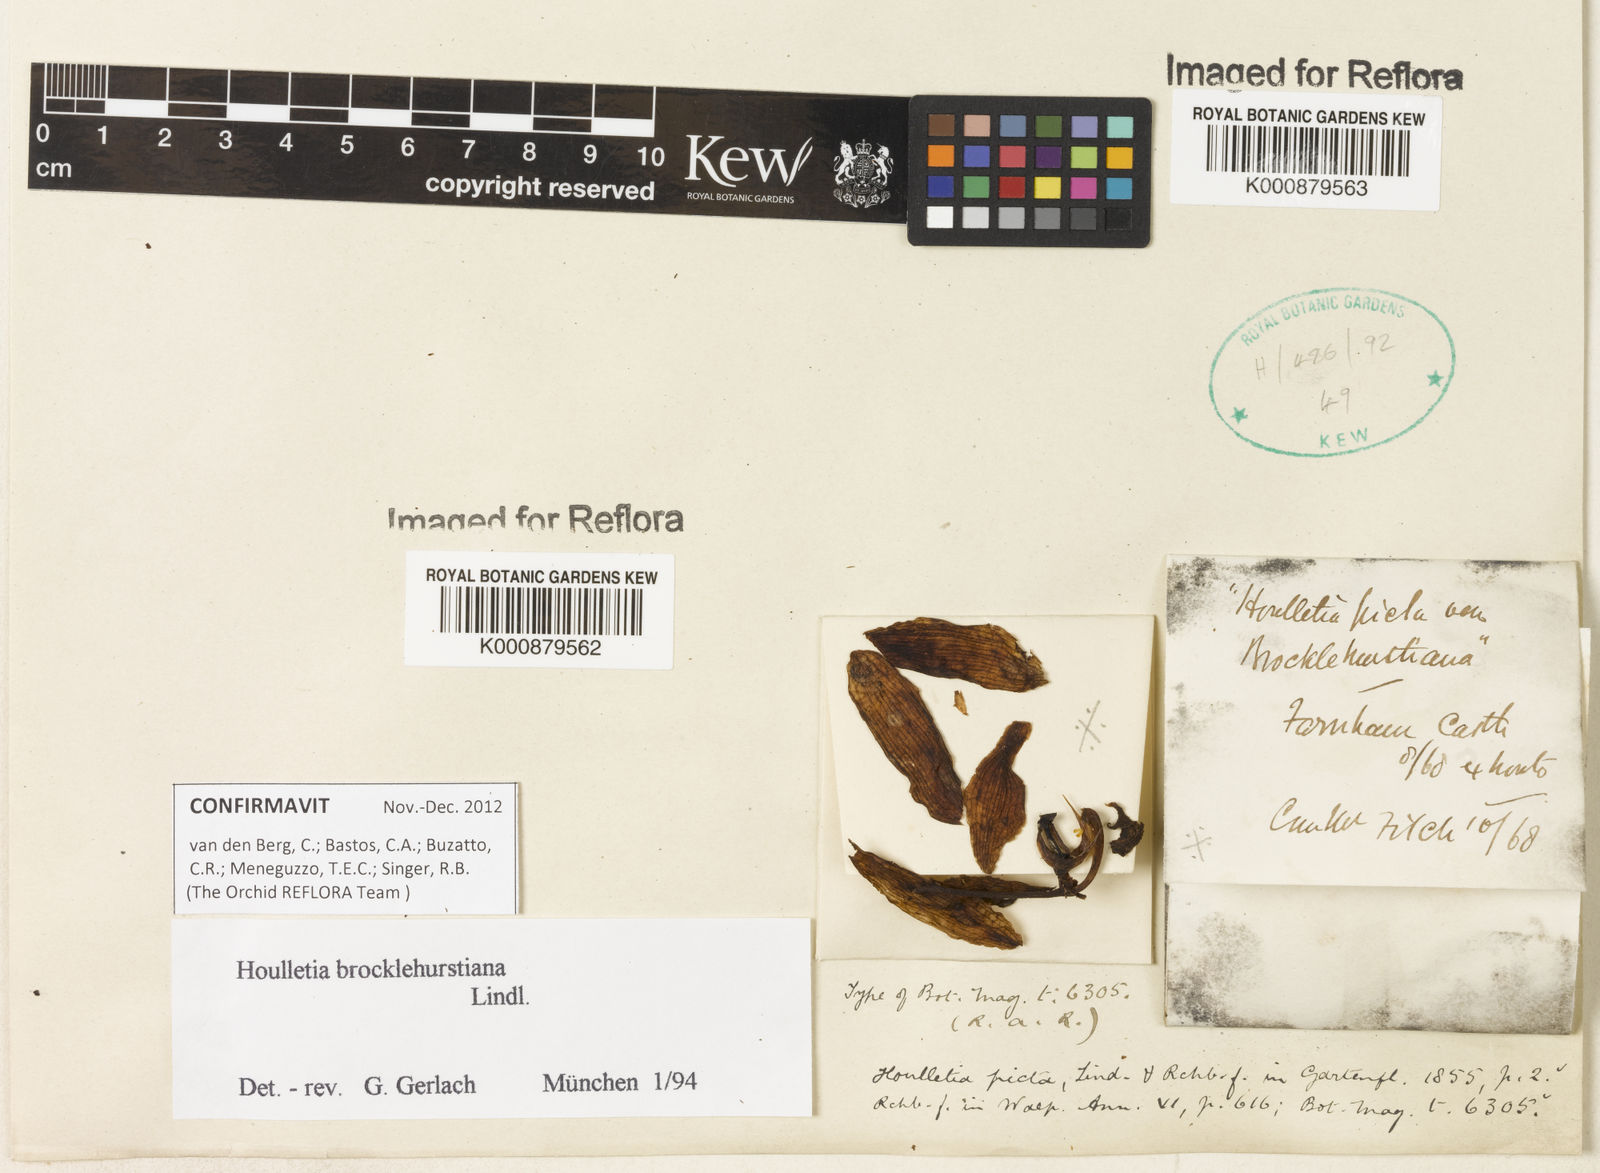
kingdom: Plantae
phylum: Tracheophyta
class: Liliopsida
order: Asparagales
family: Orchidaceae
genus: Houlletia
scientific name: Houlletia brocklehurstiana
